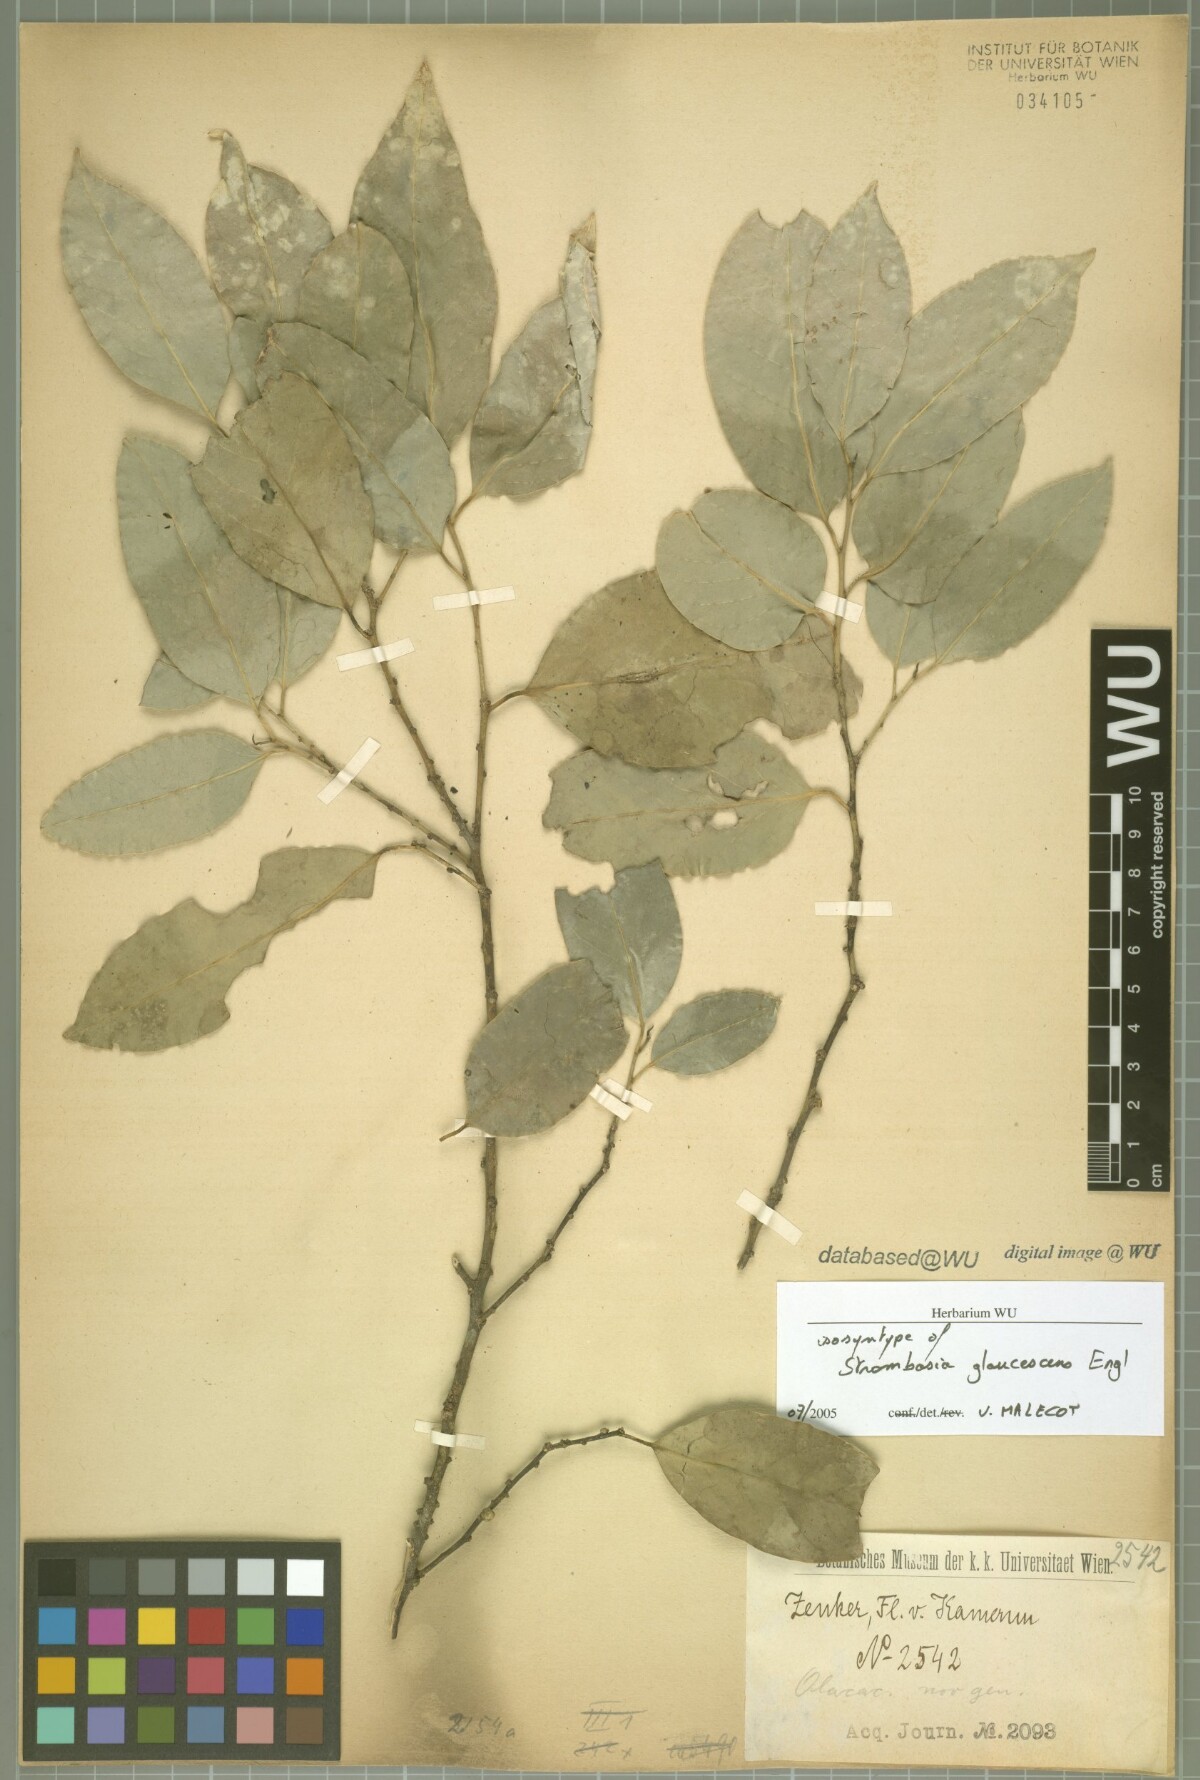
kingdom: Plantae
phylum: Tracheophyta
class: Magnoliopsida
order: Santalales
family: Strombosiaceae
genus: Strombosia
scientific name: Strombosia pustulata
